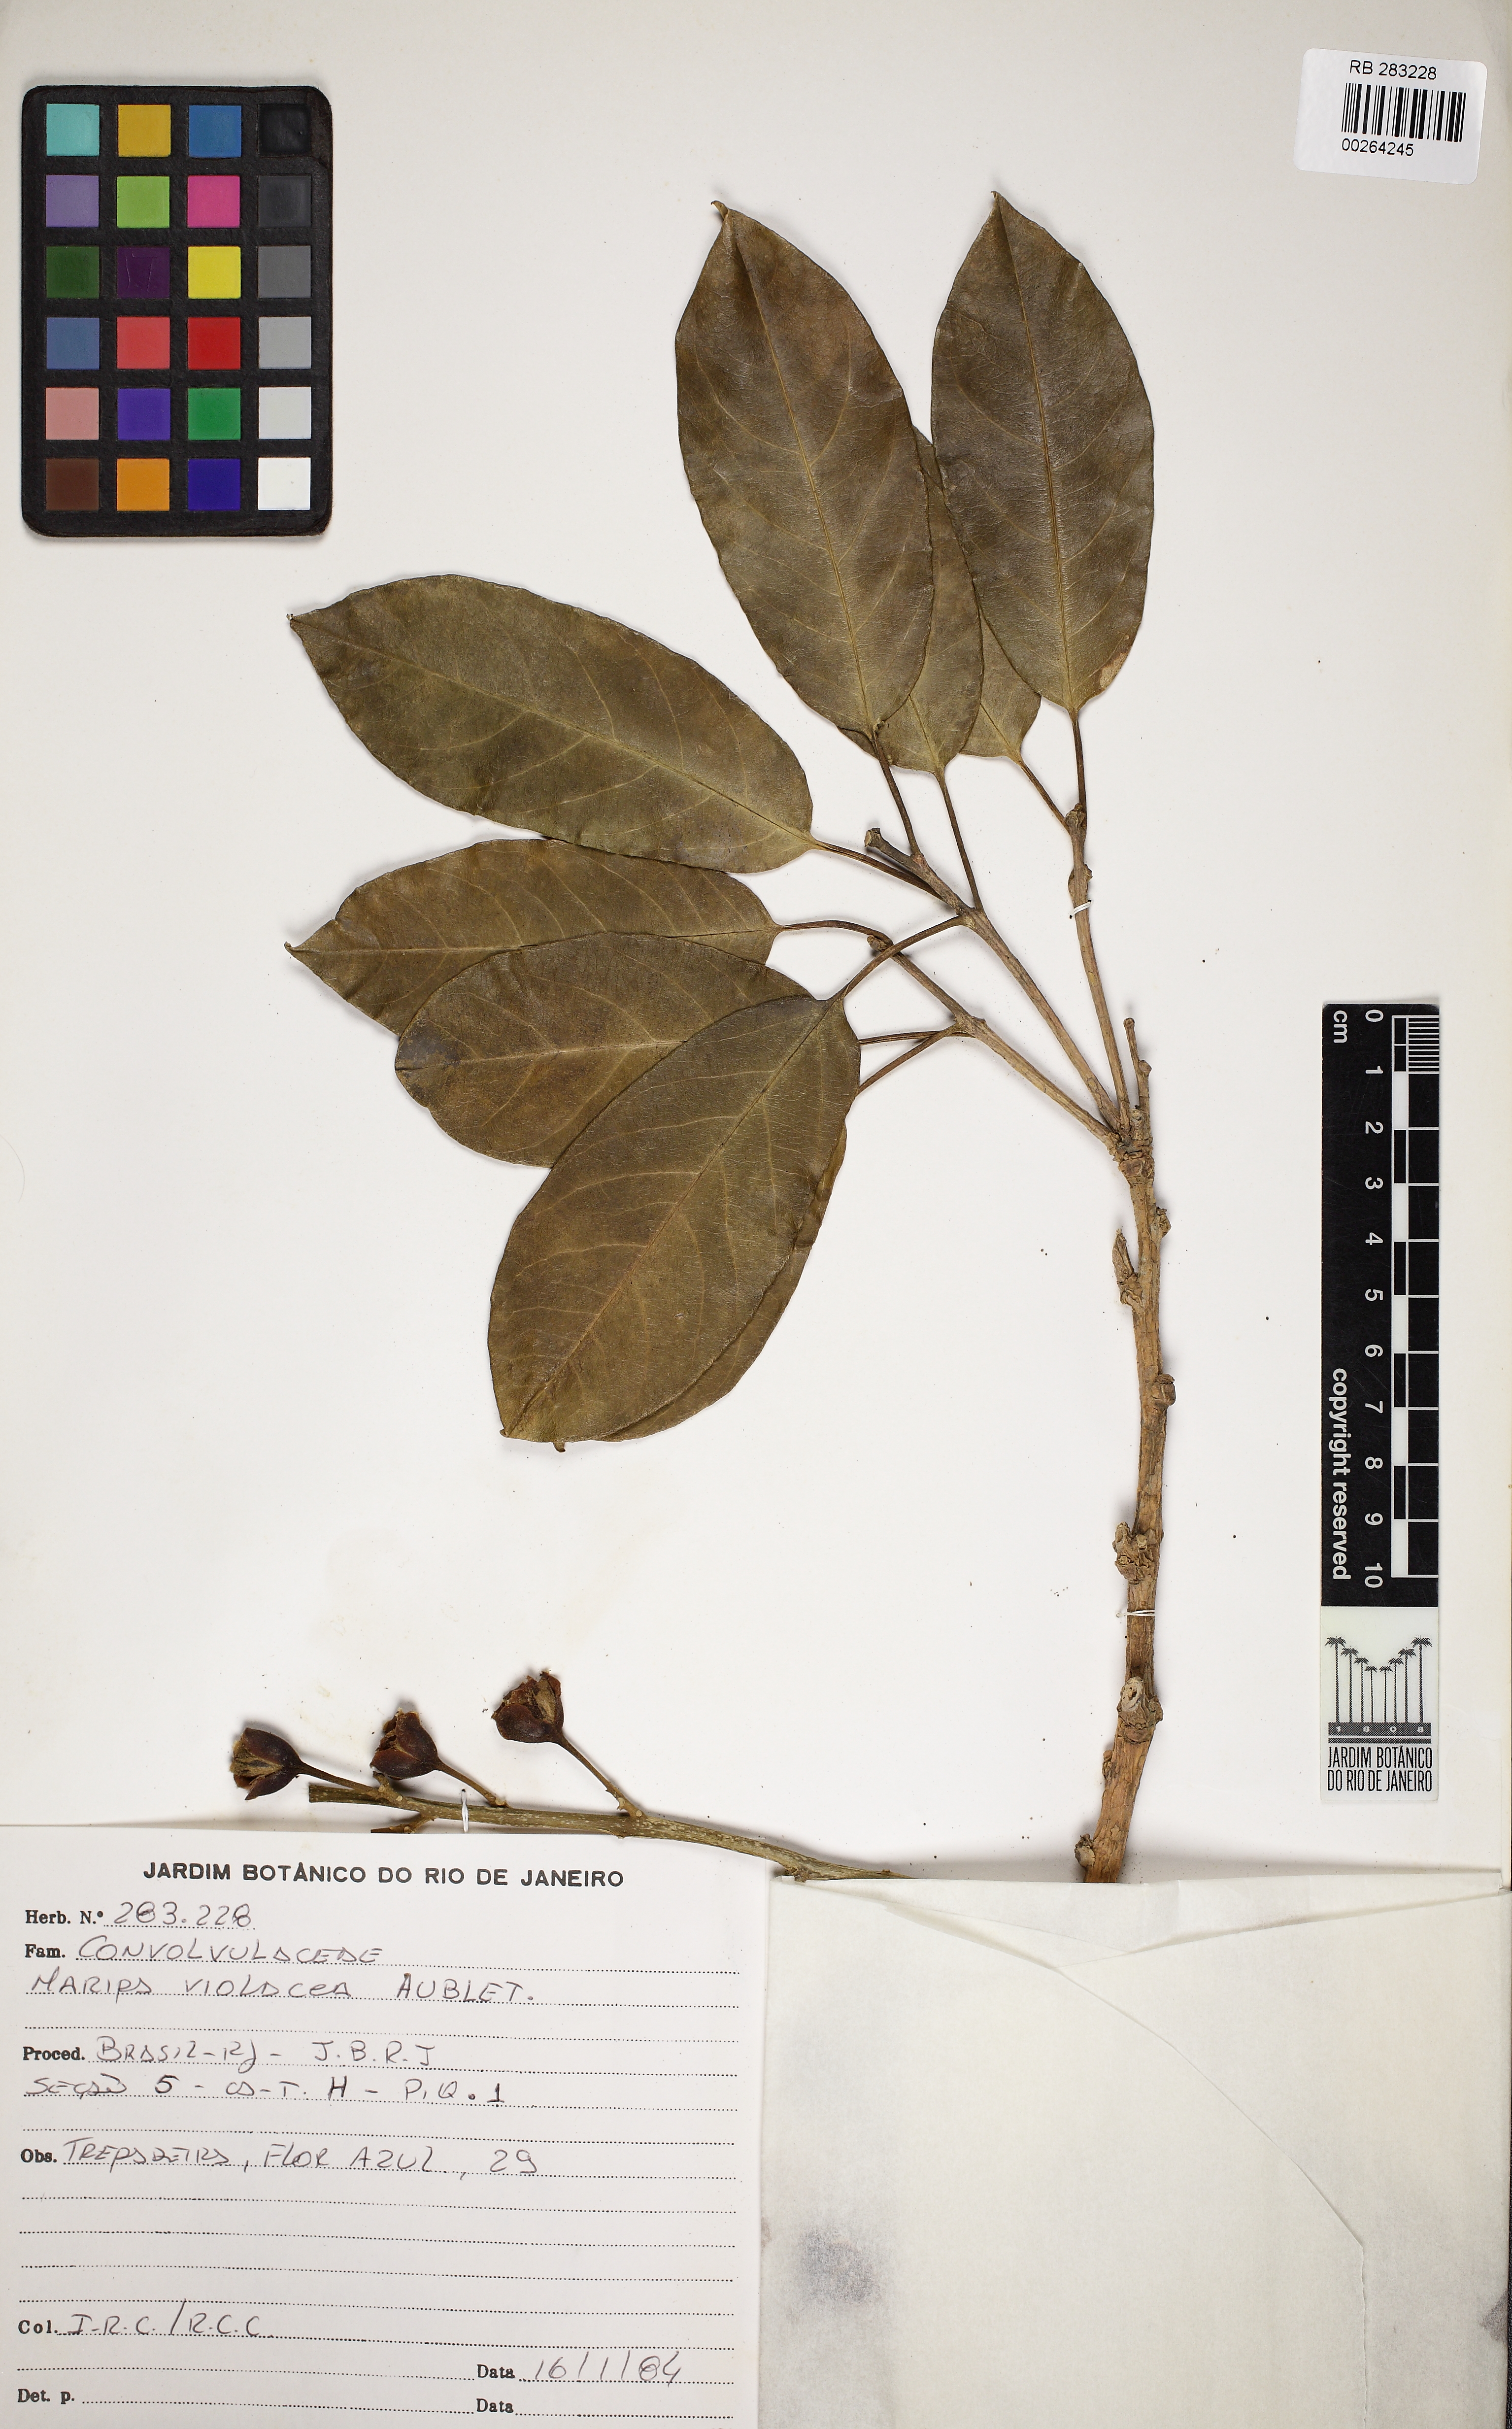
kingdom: Plantae
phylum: Tracheophyta
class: Magnoliopsida
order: Solanales
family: Convolvulaceae
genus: Maripa
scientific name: Maripa violacea
